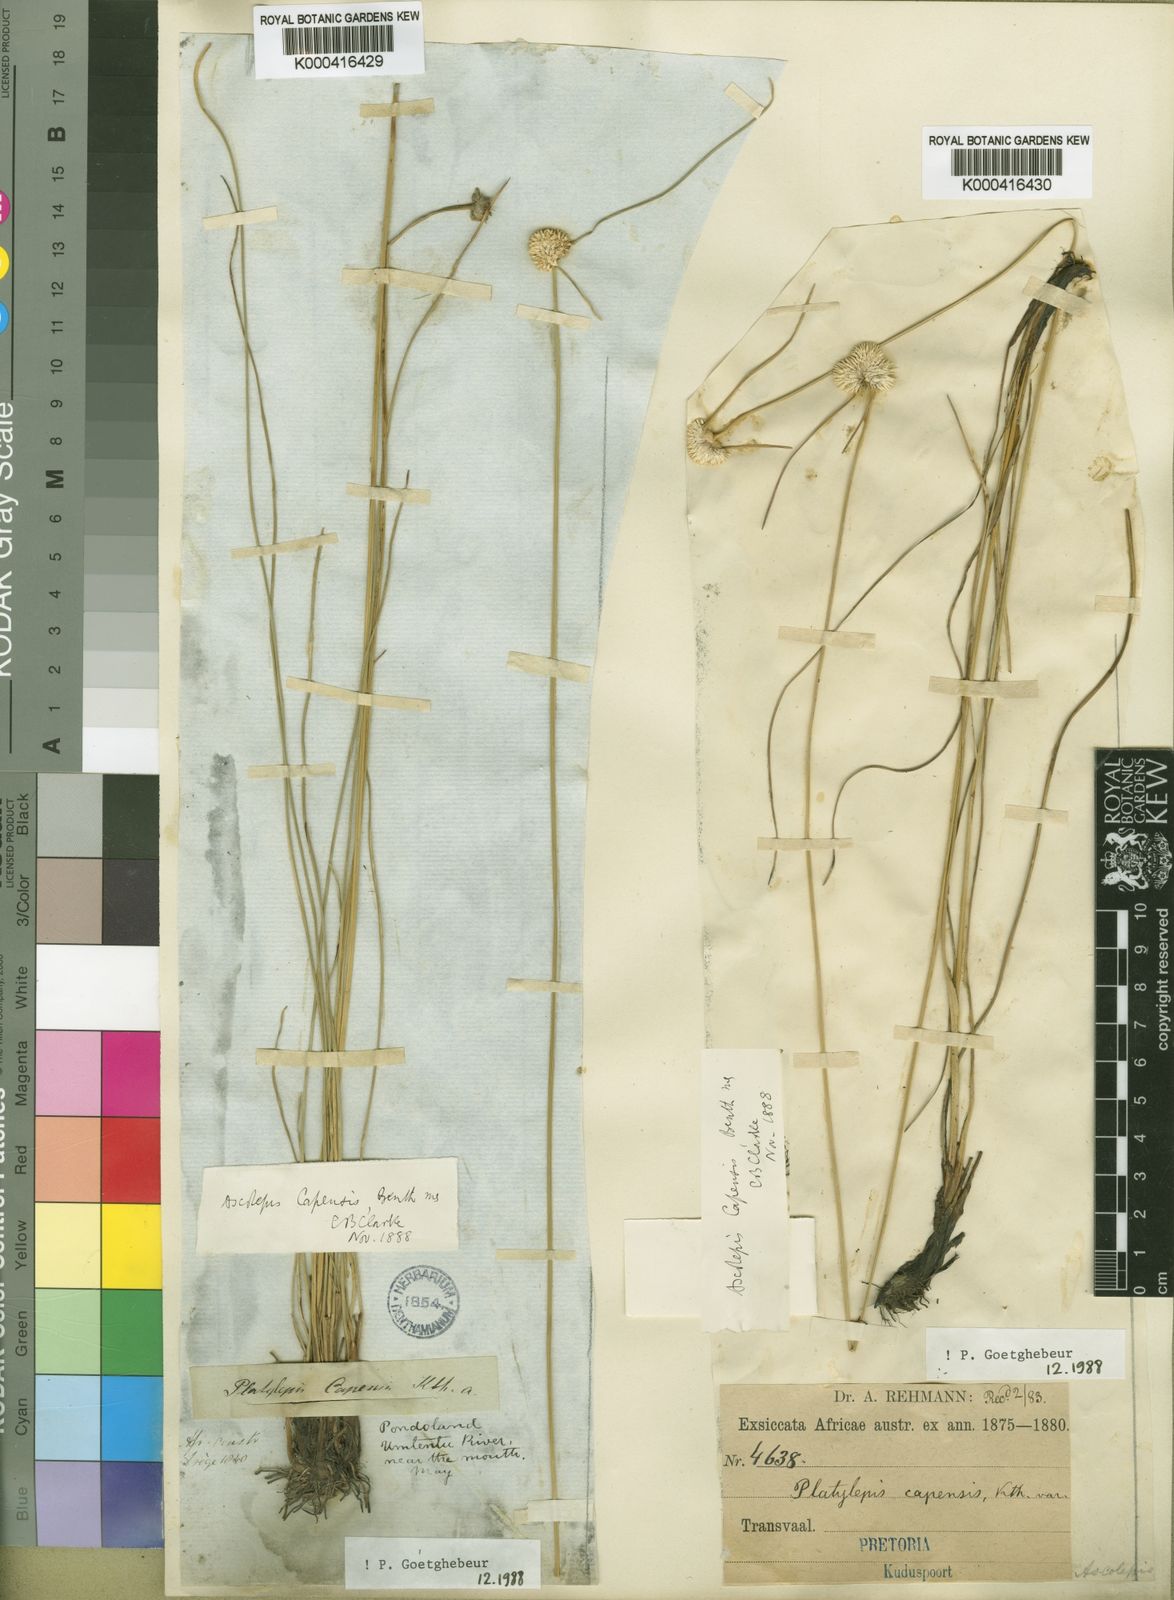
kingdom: Plantae
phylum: Tracheophyta
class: Liliopsida
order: Poales
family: Cyperaceae
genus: Ascolepis
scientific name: Ascolepis
